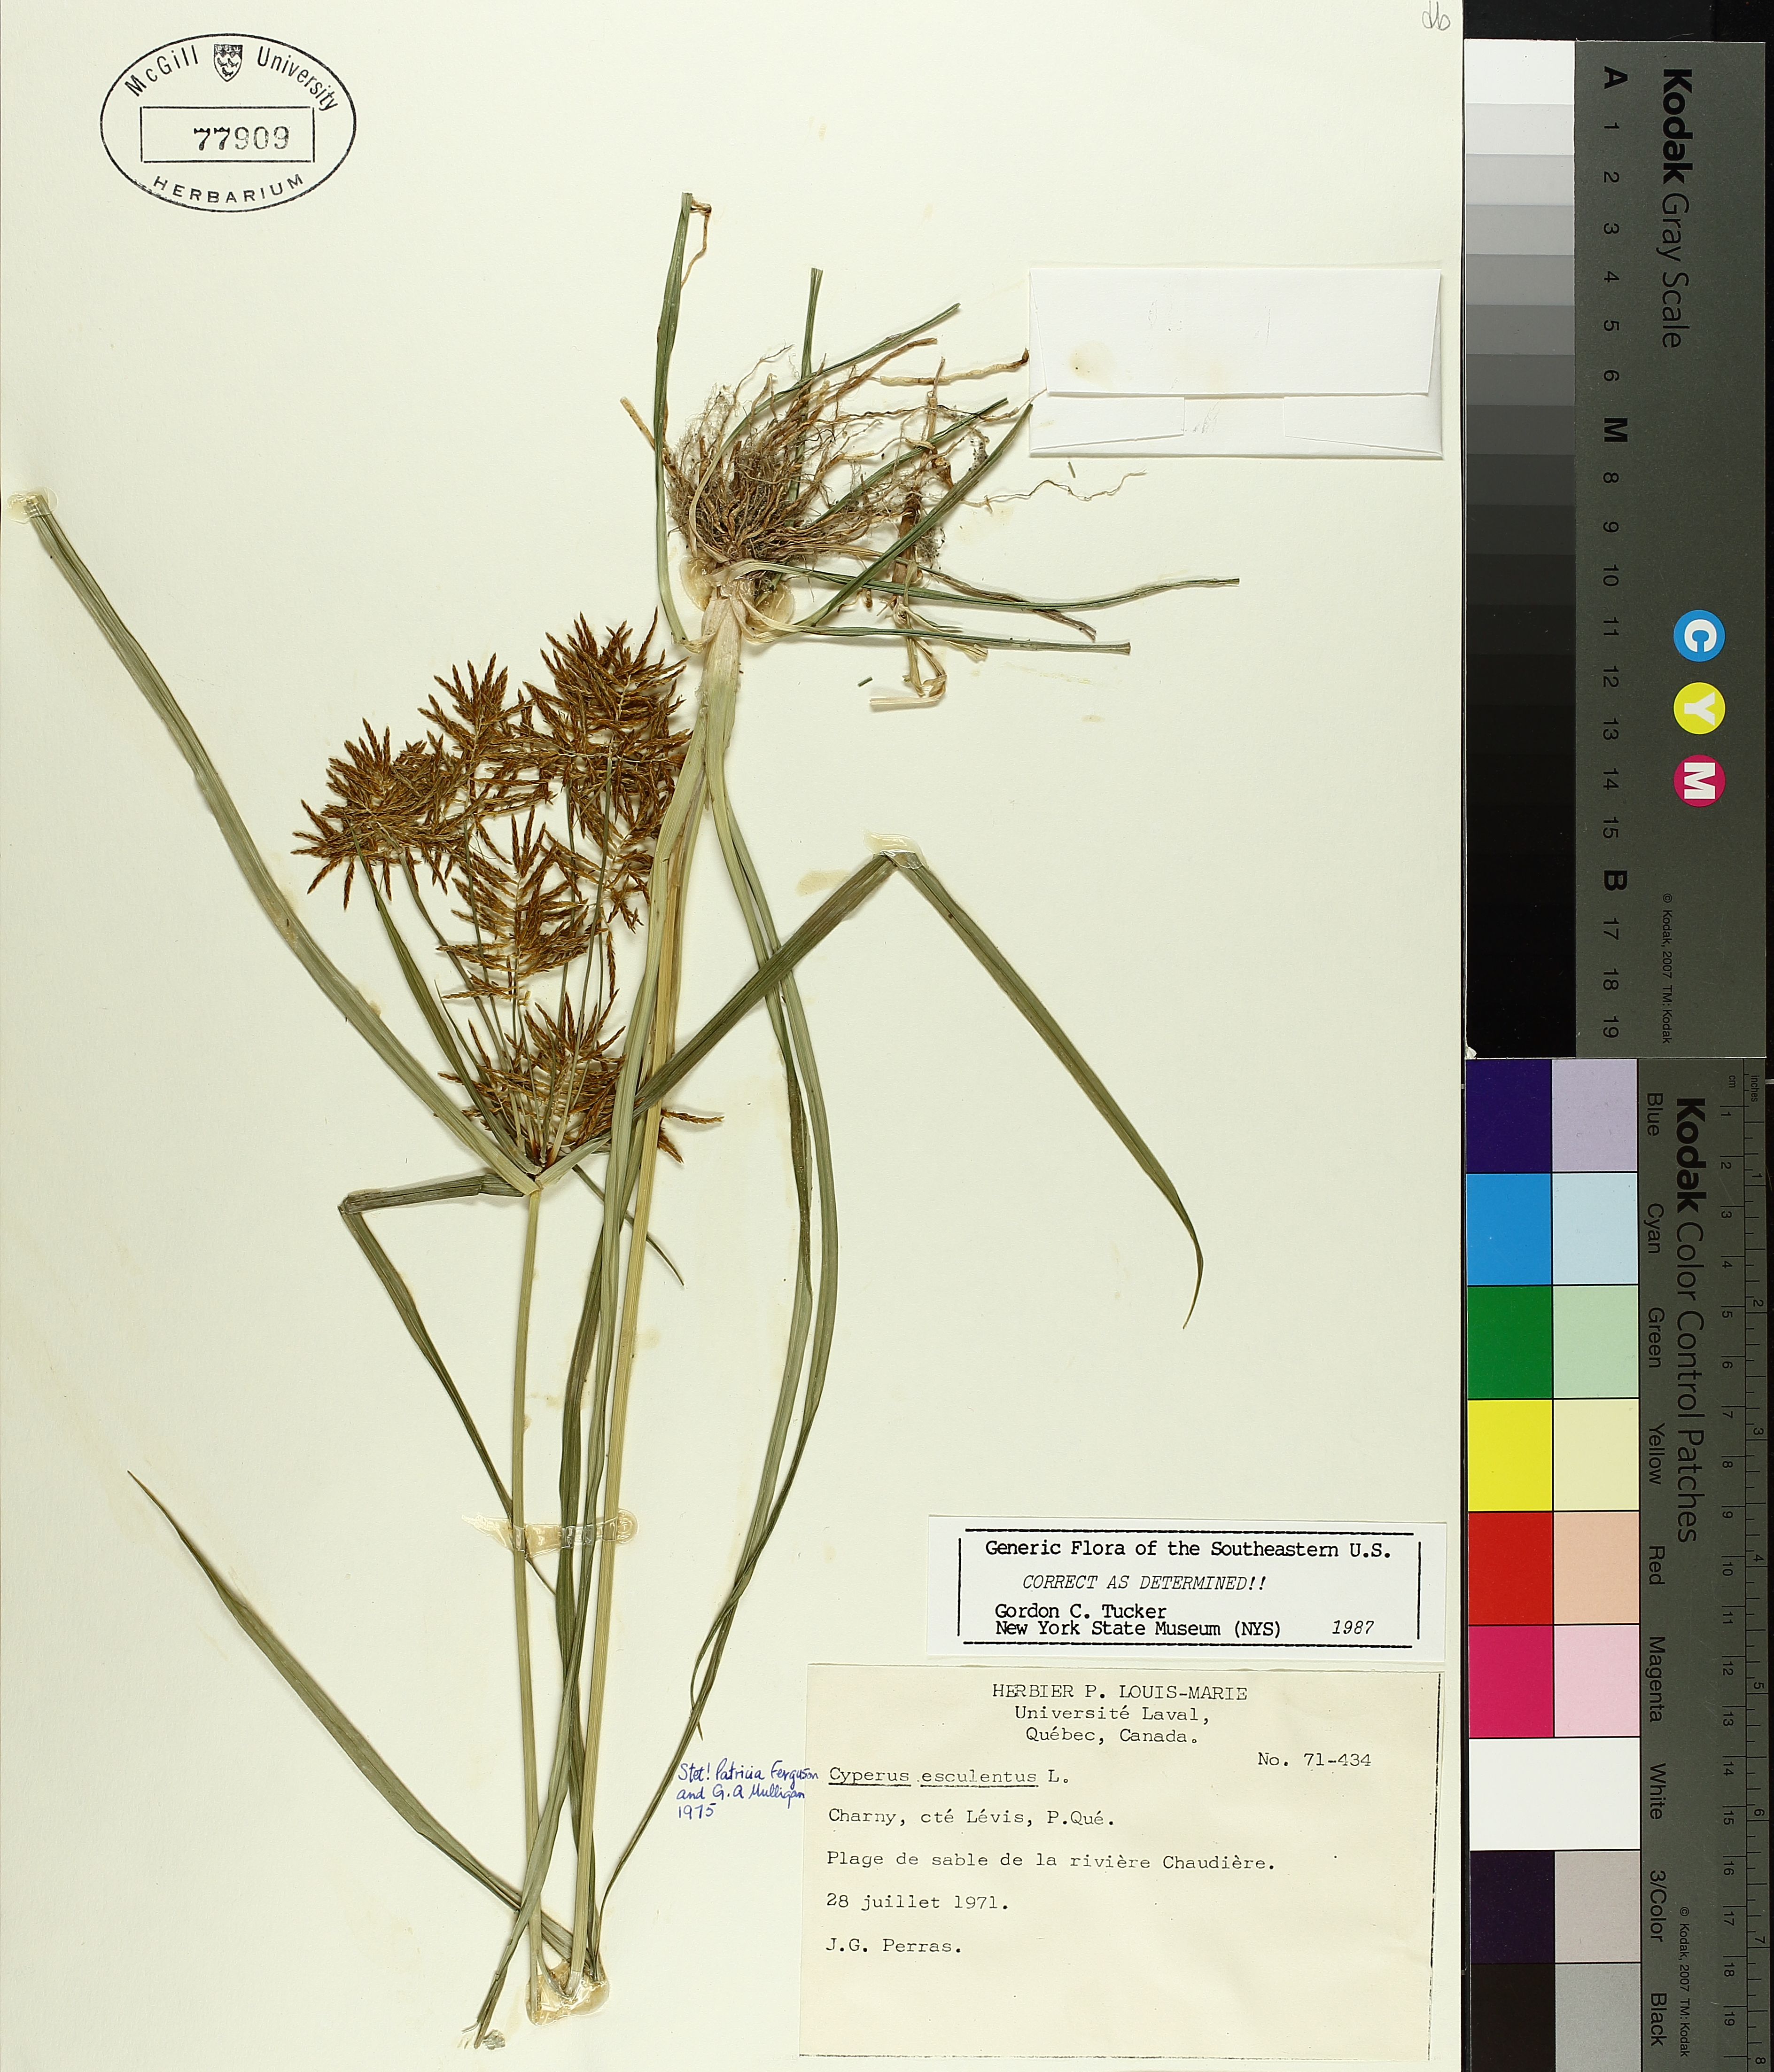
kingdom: Plantae
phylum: Tracheophyta
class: Liliopsida
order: Poales
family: Cyperaceae
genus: Cyperus
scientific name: Cyperus esculentus
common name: Yellow nutsedge
